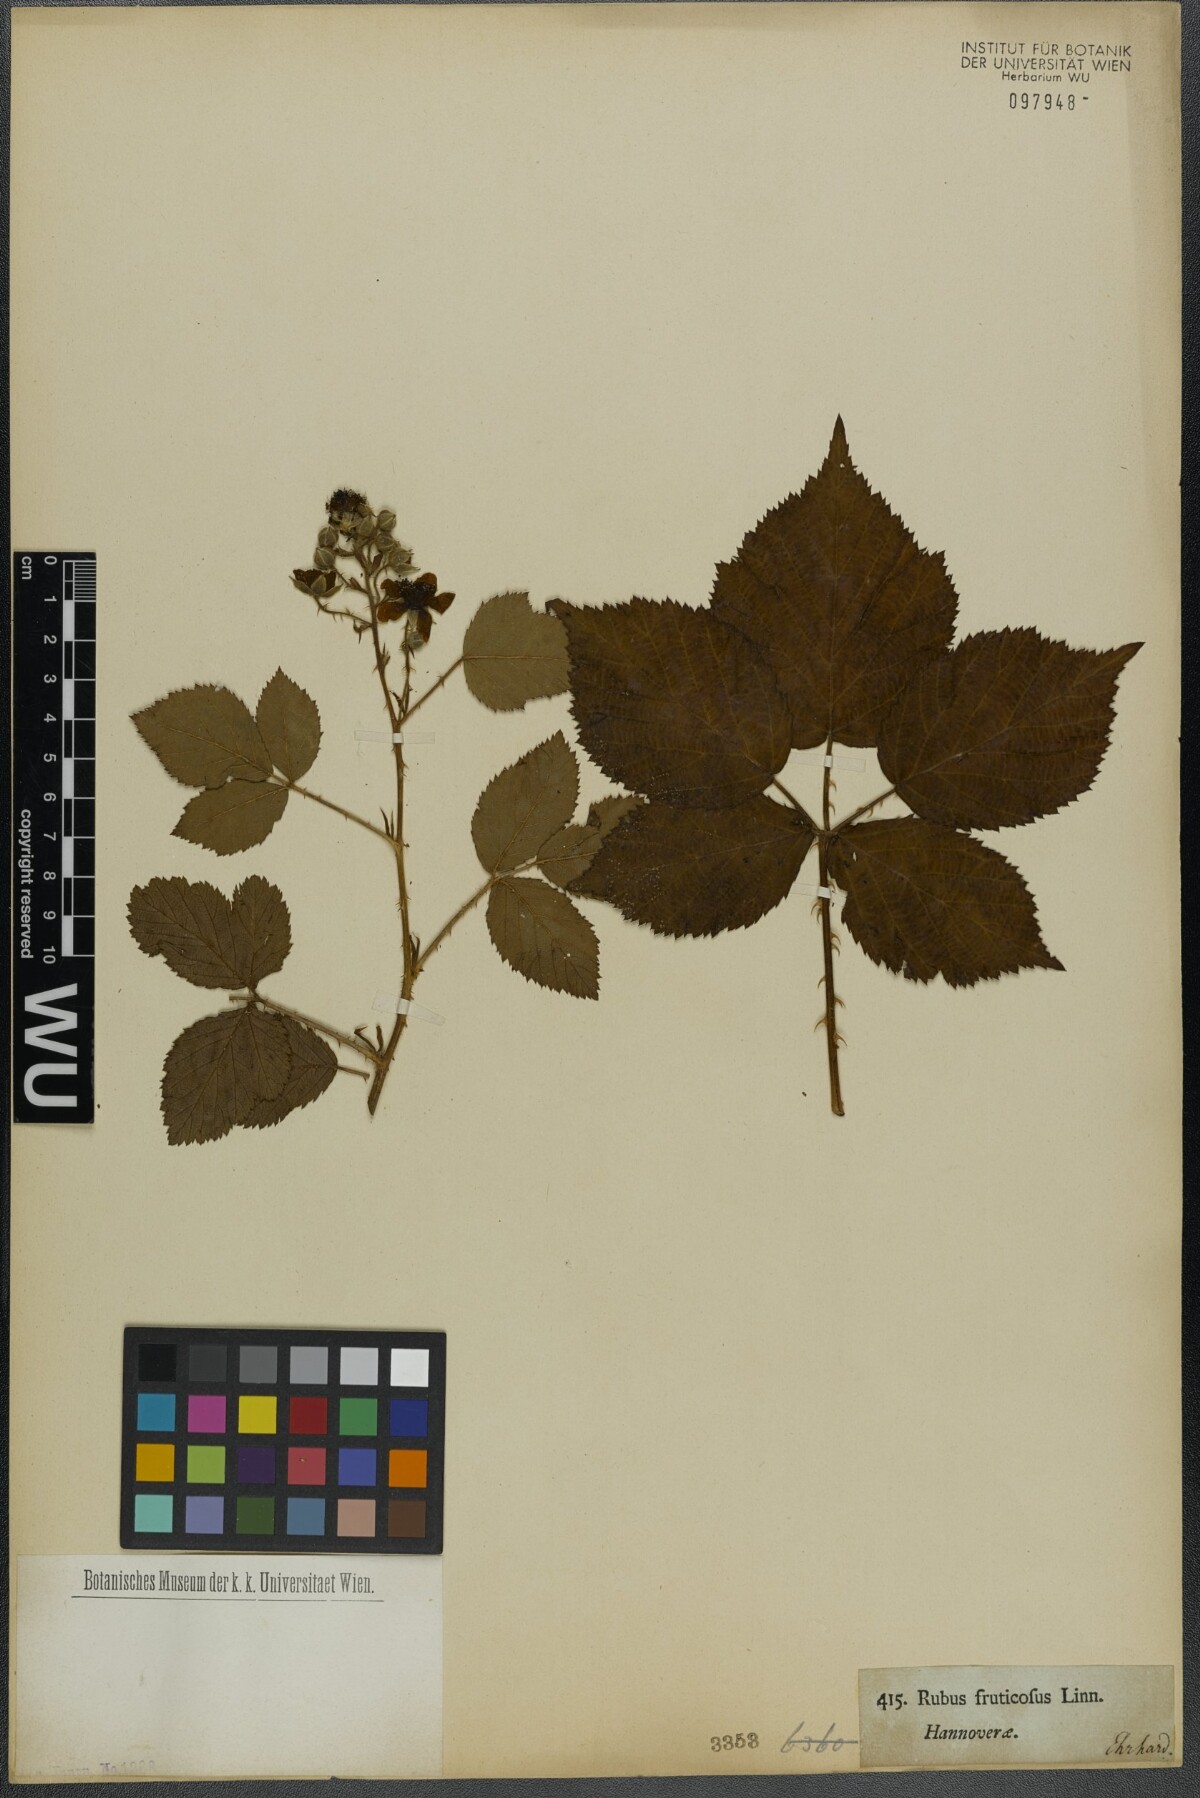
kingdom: Plantae
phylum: Tracheophyta
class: Magnoliopsida
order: Rosales
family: Rosaceae
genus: Rubus
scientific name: Rubus fruticosus
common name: Blackberry, bramble
